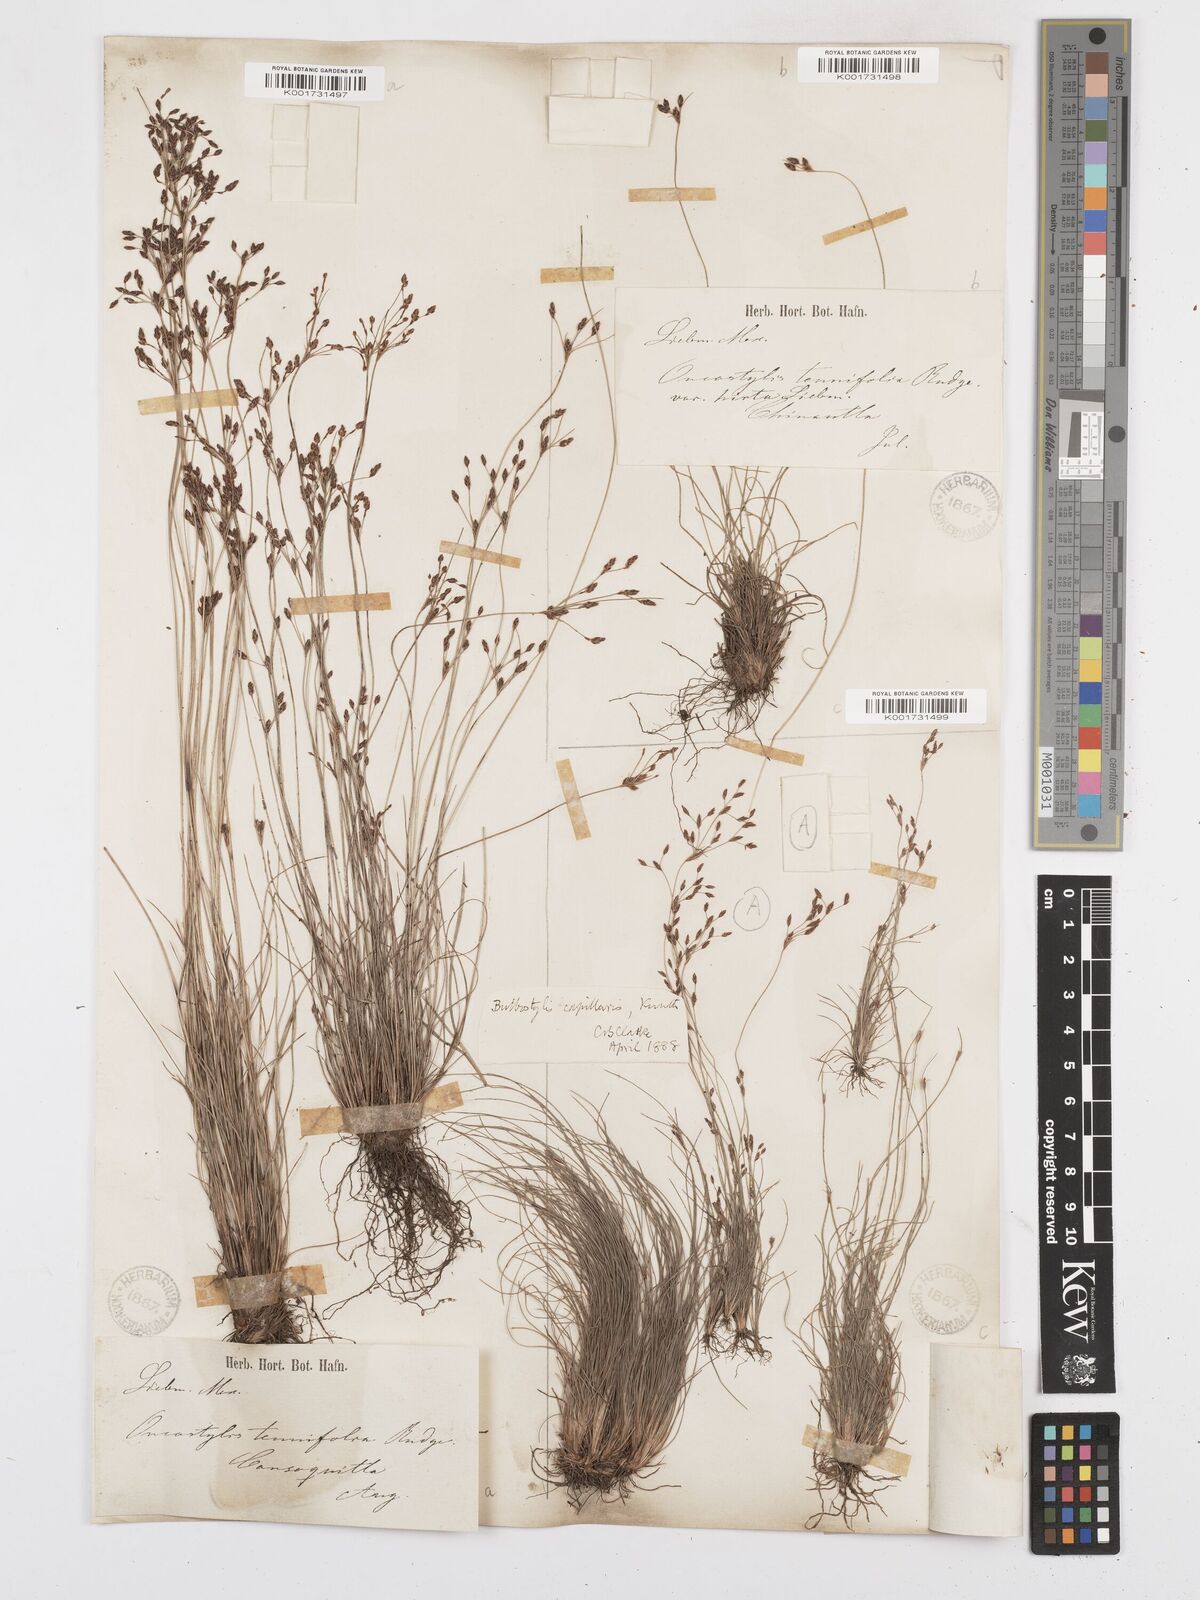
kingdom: Plantae
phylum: Tracheophyta
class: Liliopsida
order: Poales
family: Cyperaceae
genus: Bulbostylis
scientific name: Bulbostylis capillaris
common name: Densetuft hairsedge
